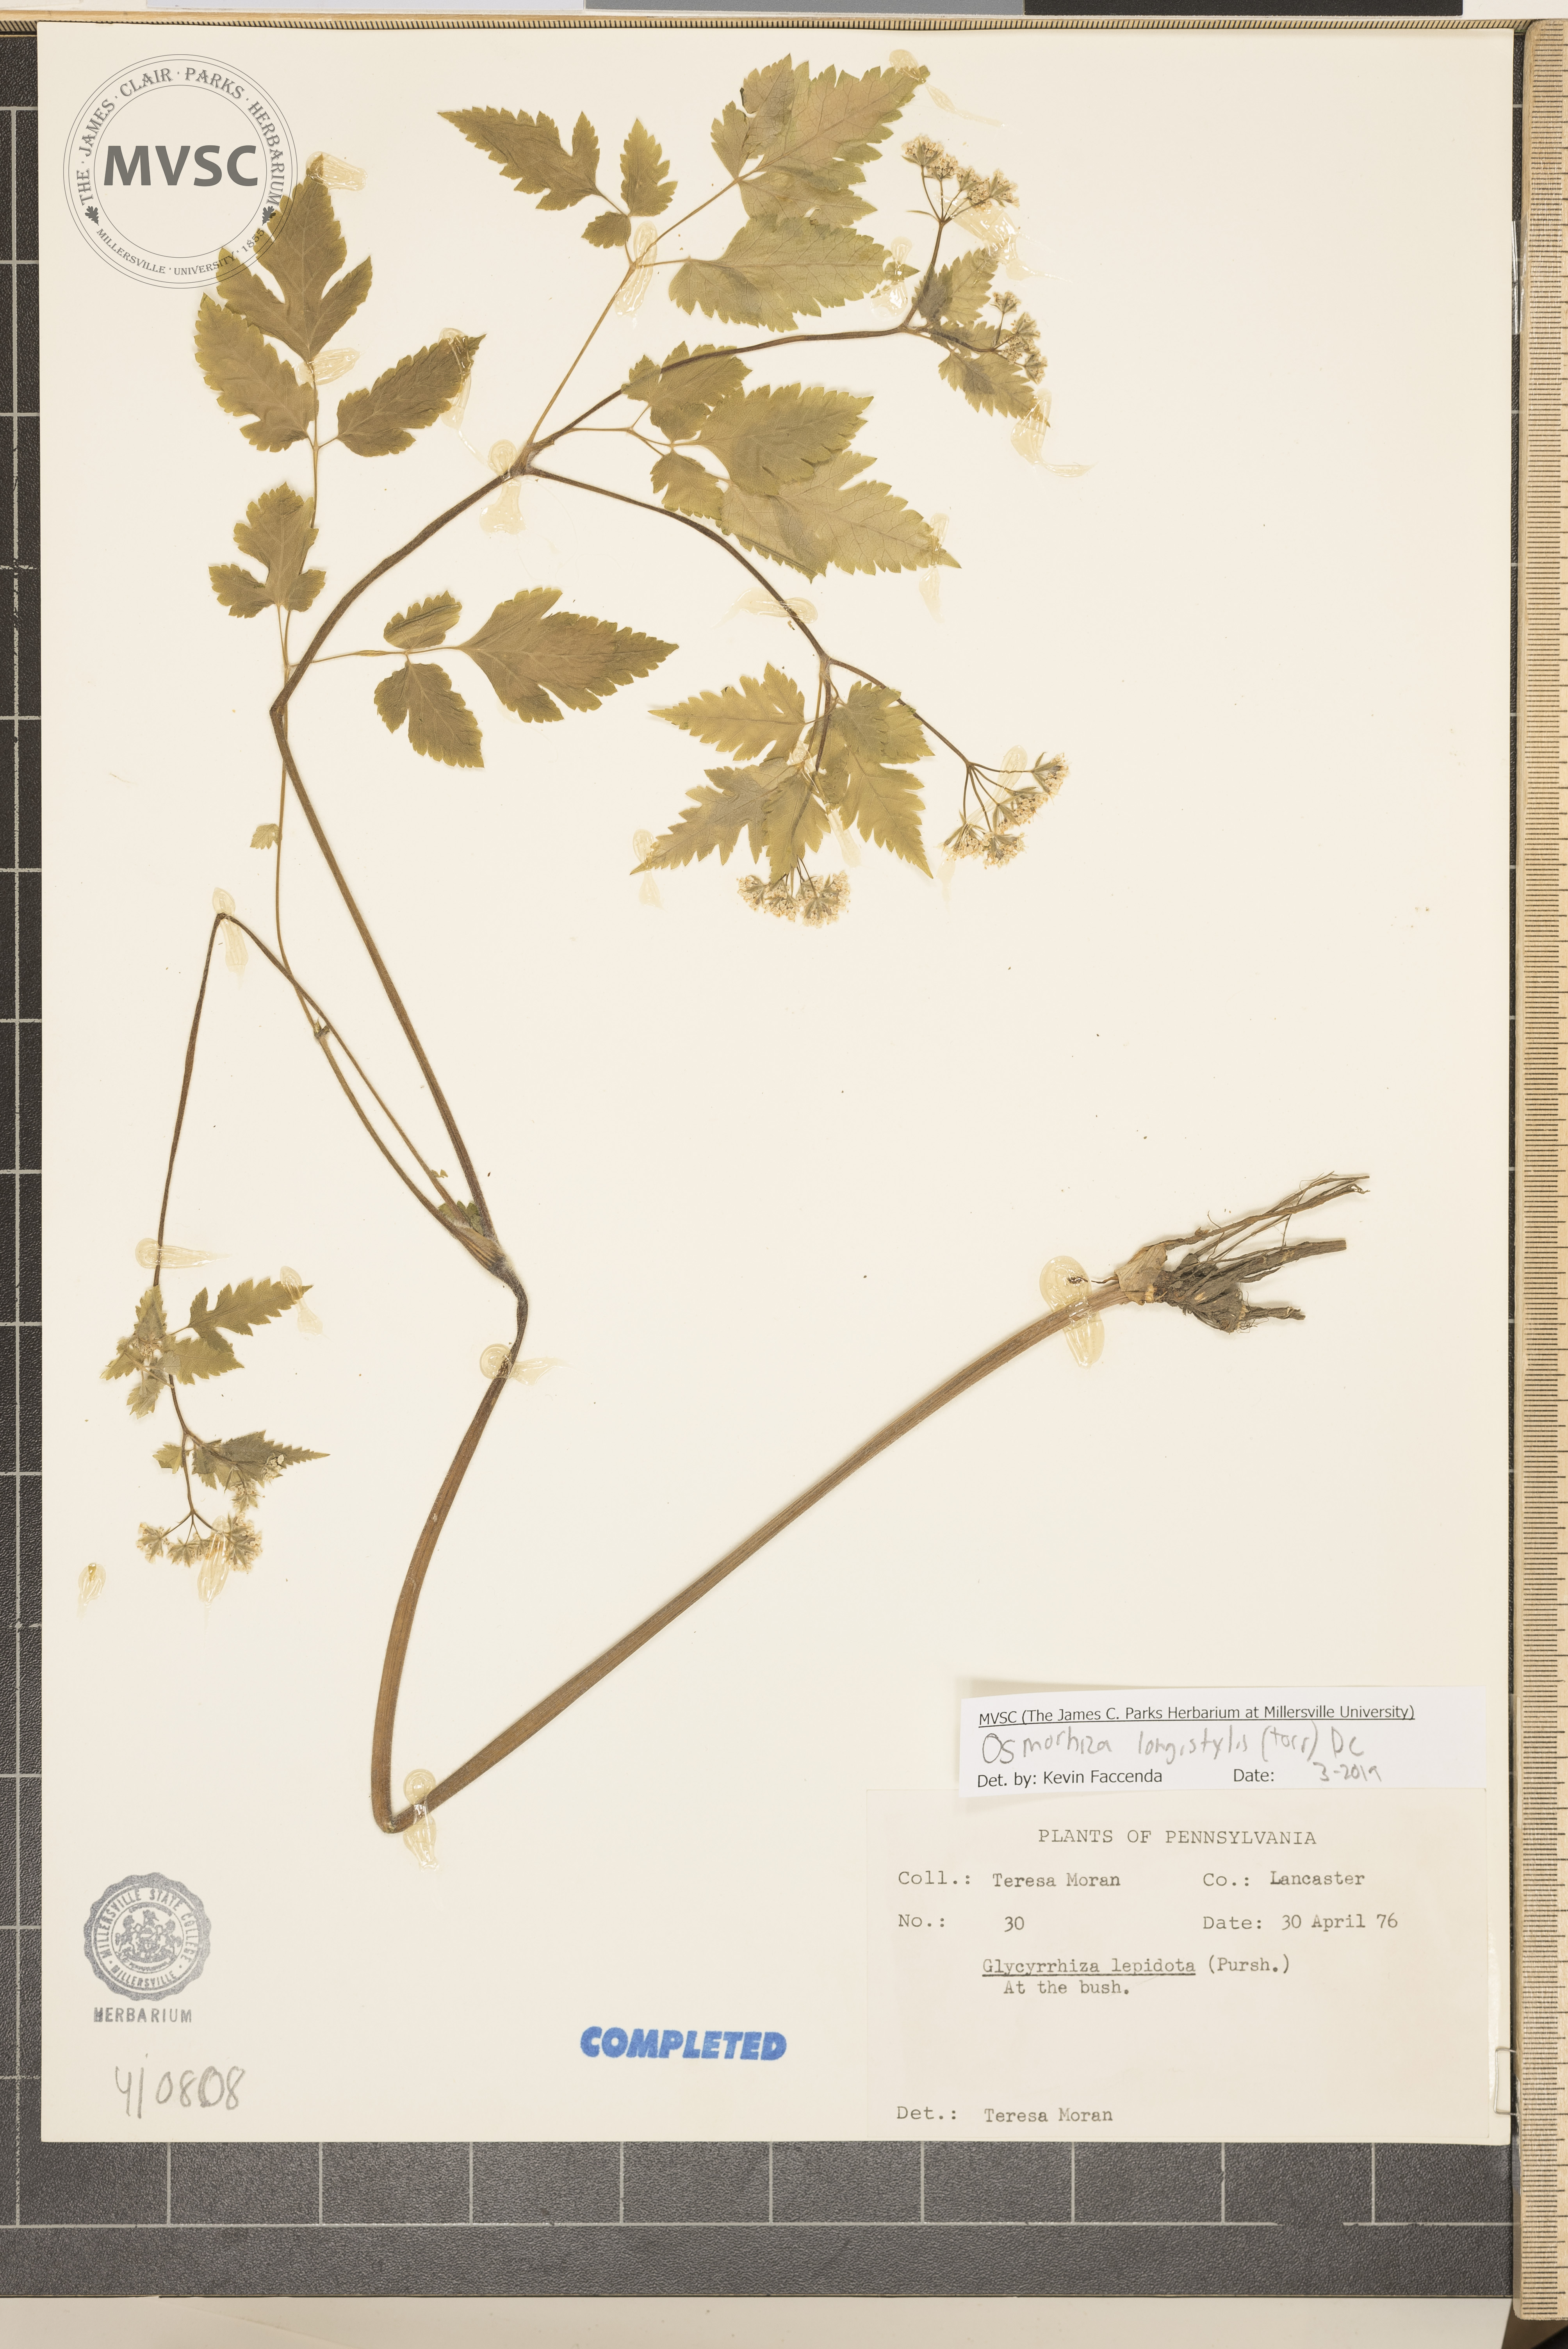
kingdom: Plantae
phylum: Tracheophyta
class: Magnoliopsida
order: Apiales
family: Apiaceae
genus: Osmorhiza
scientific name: Osmorhiza longistylis
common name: Smooth sweet cicely
